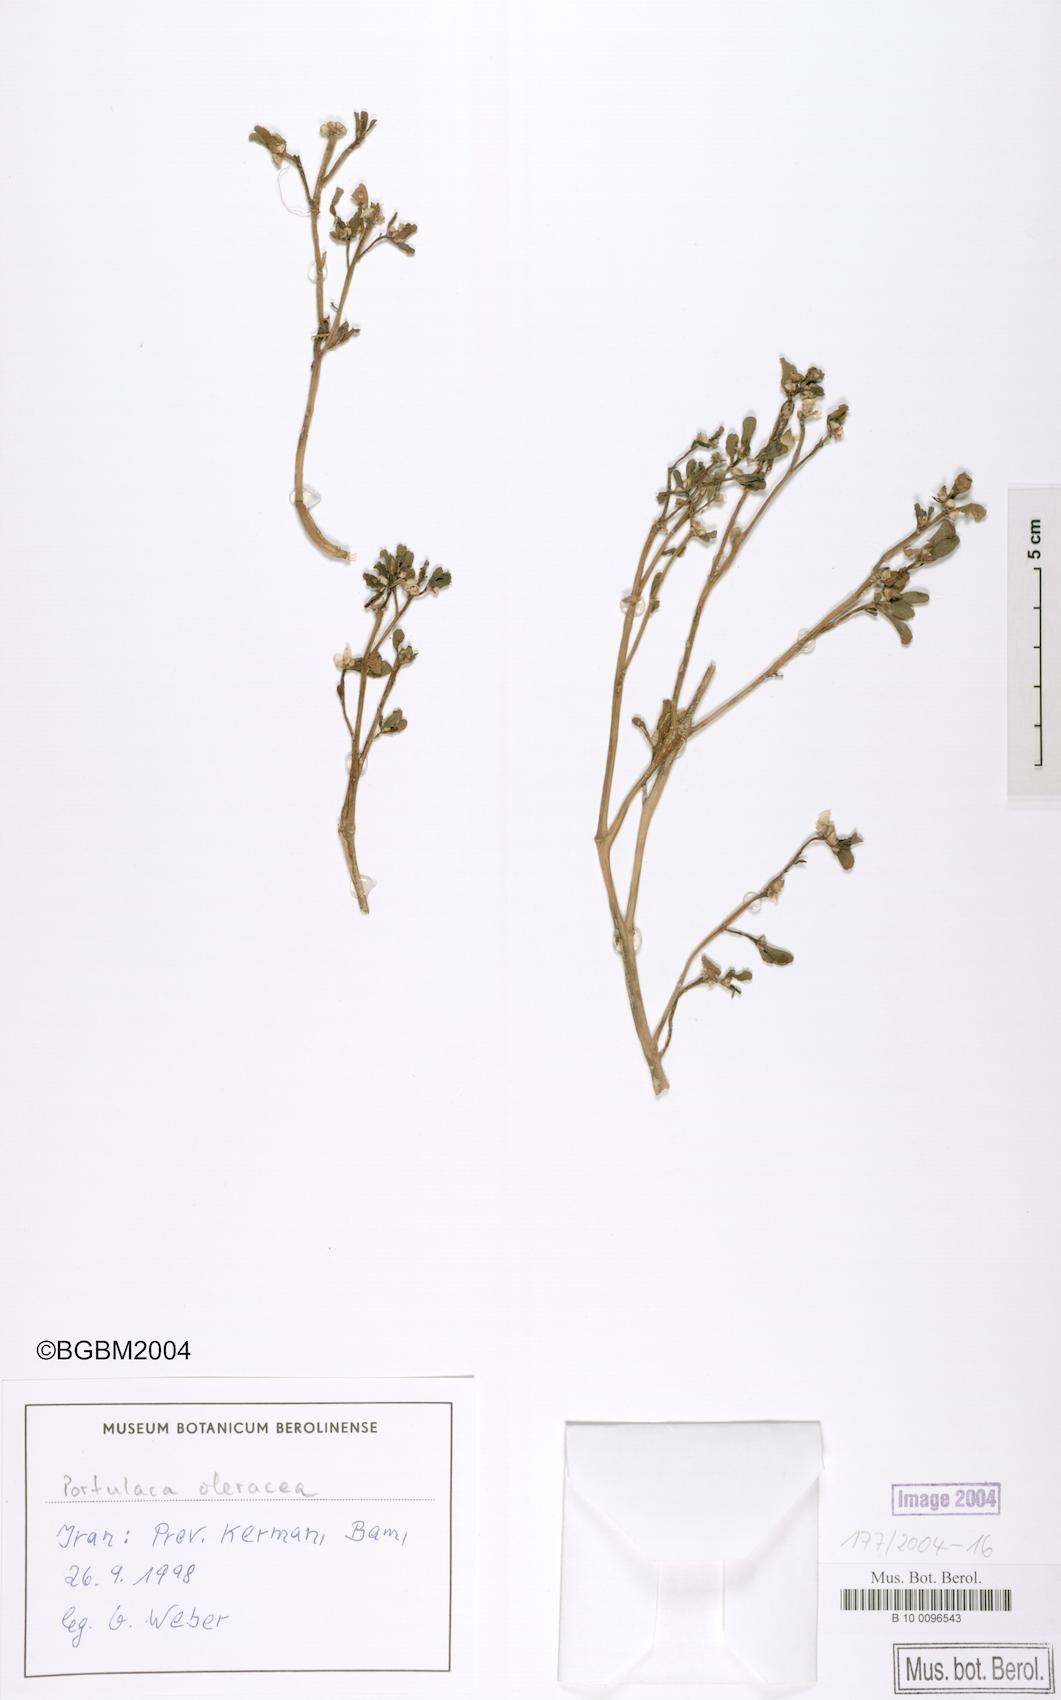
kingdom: Plantae
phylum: Tracheophyta
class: Magnoliopsida
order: Caryophyllales
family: Portulacaceae
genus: Portulaca
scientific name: Portulaca oleracea
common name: Common purslane
